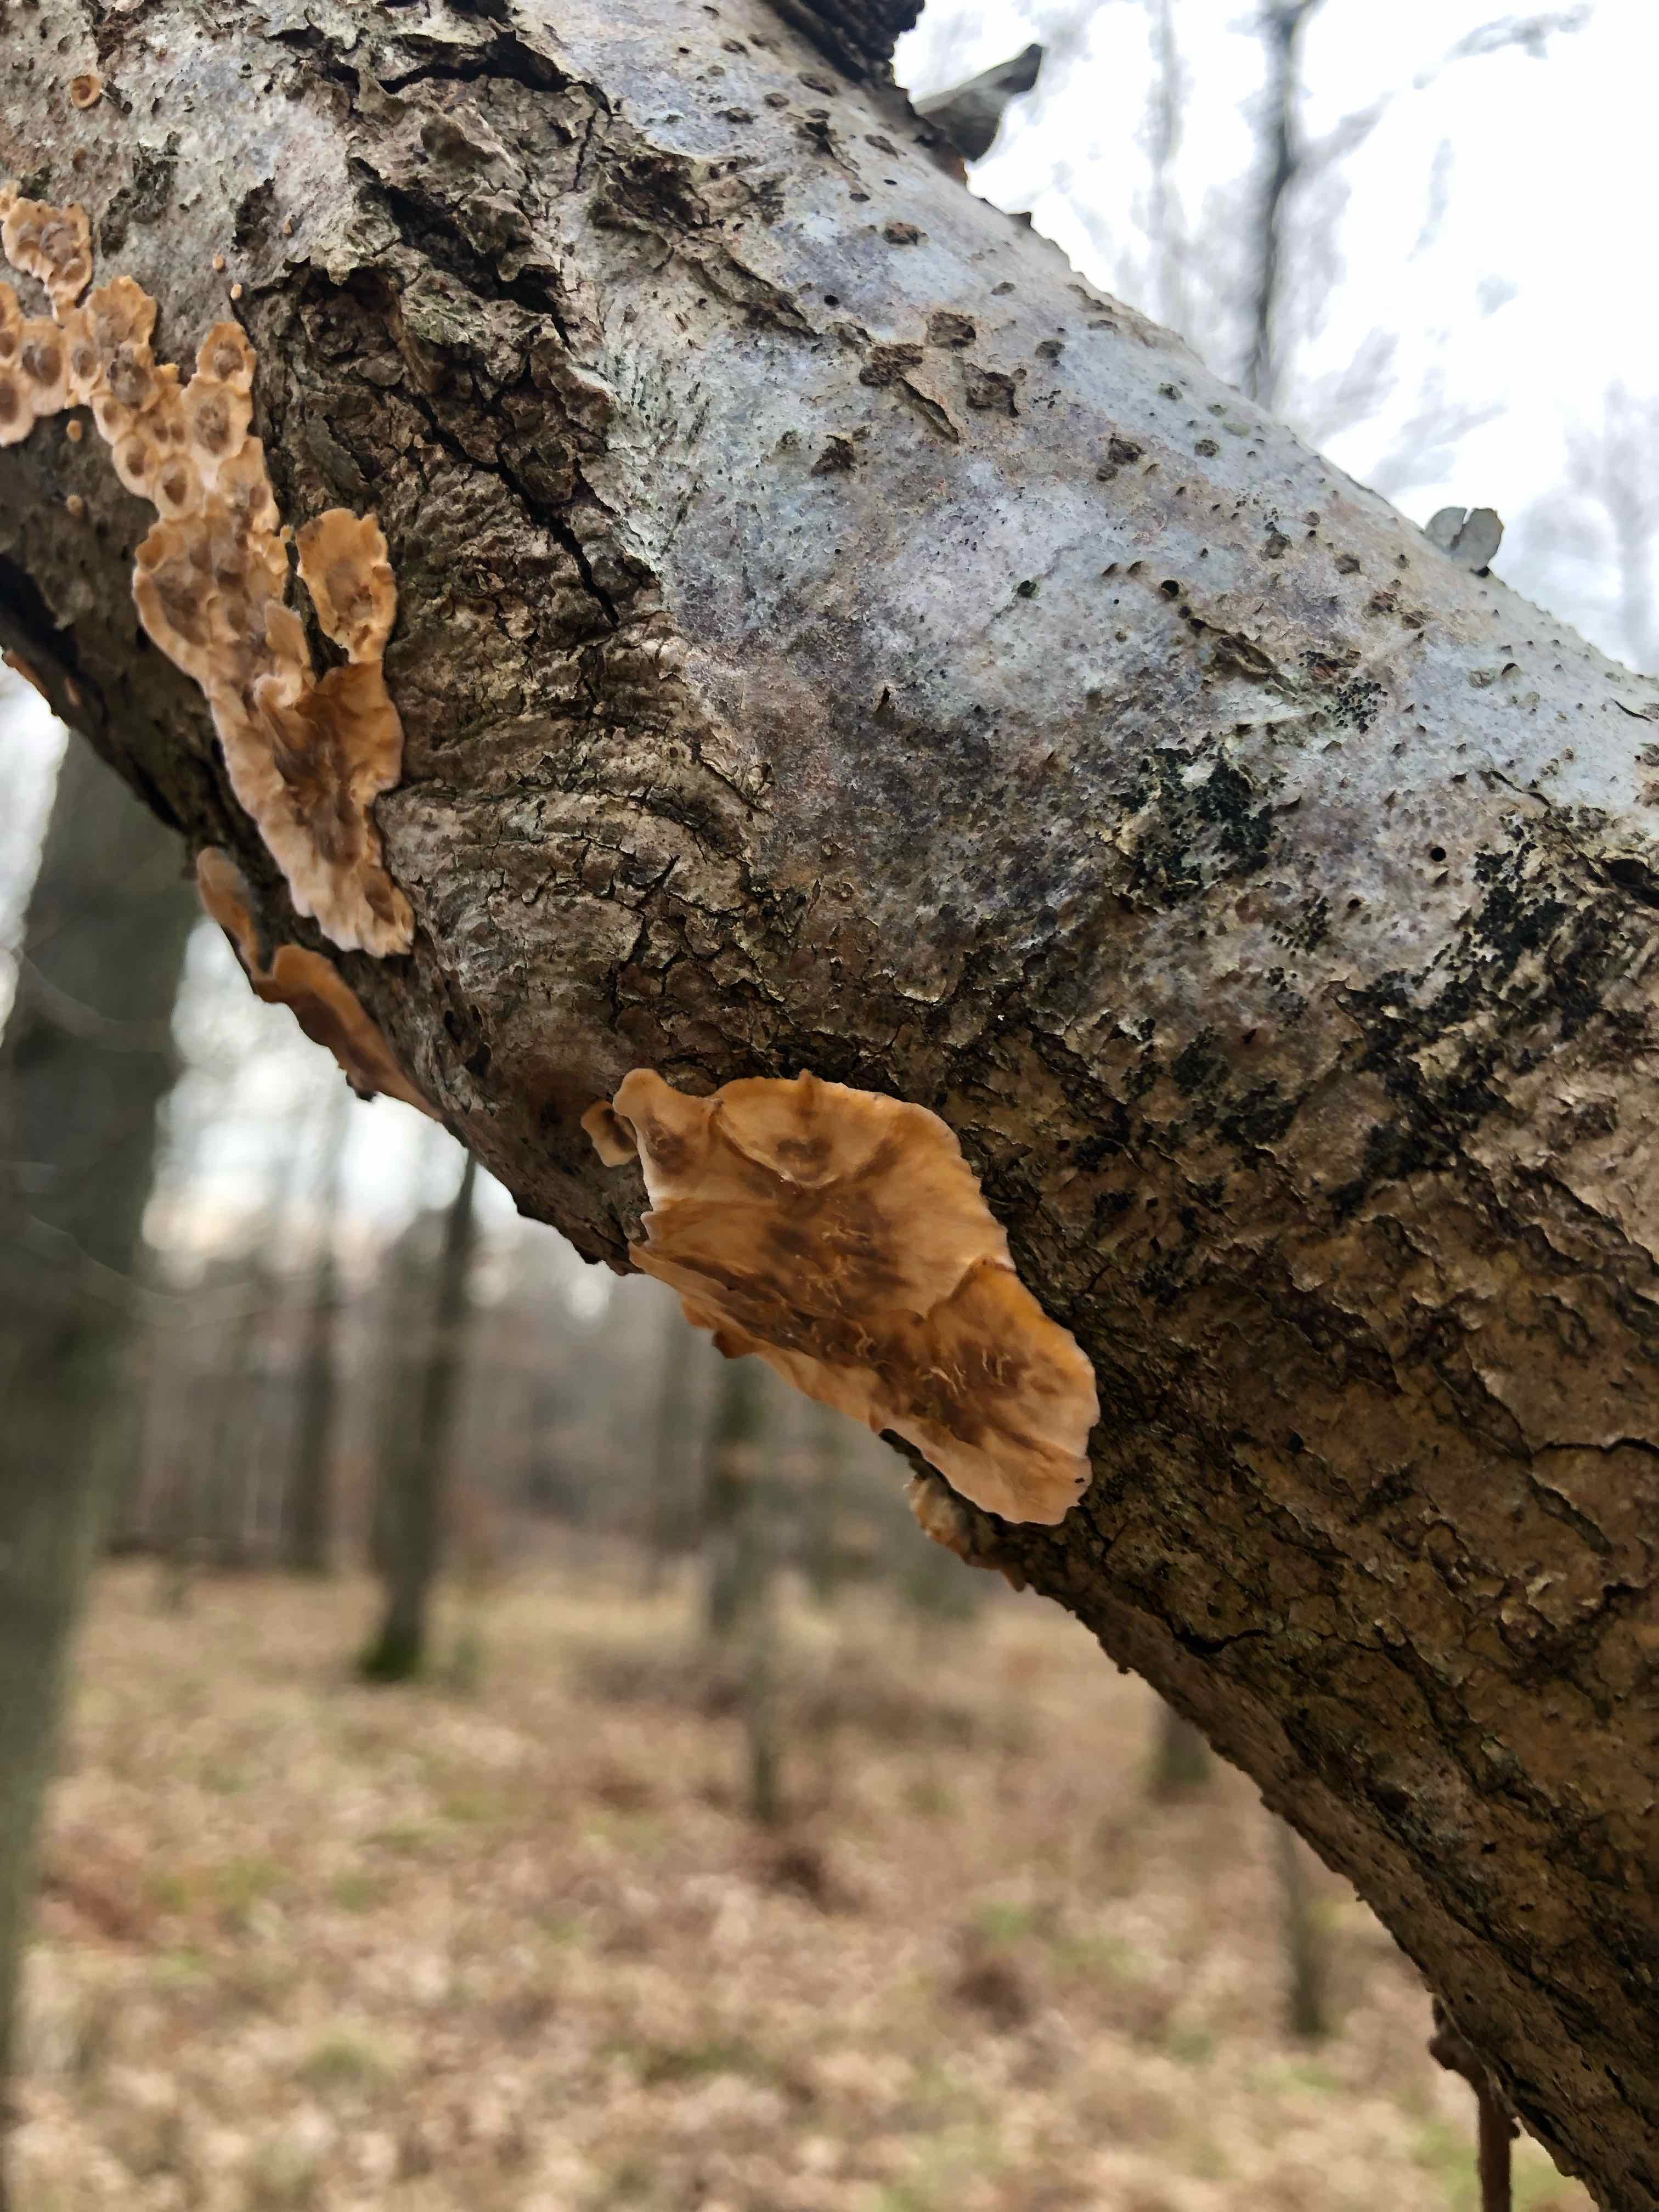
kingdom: Fungi
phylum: Basidiomycota
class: Agaricomycetes
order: Russulales
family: Stereaceae
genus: Stereum
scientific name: Stereum hirsutum
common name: håret lædersvamp
